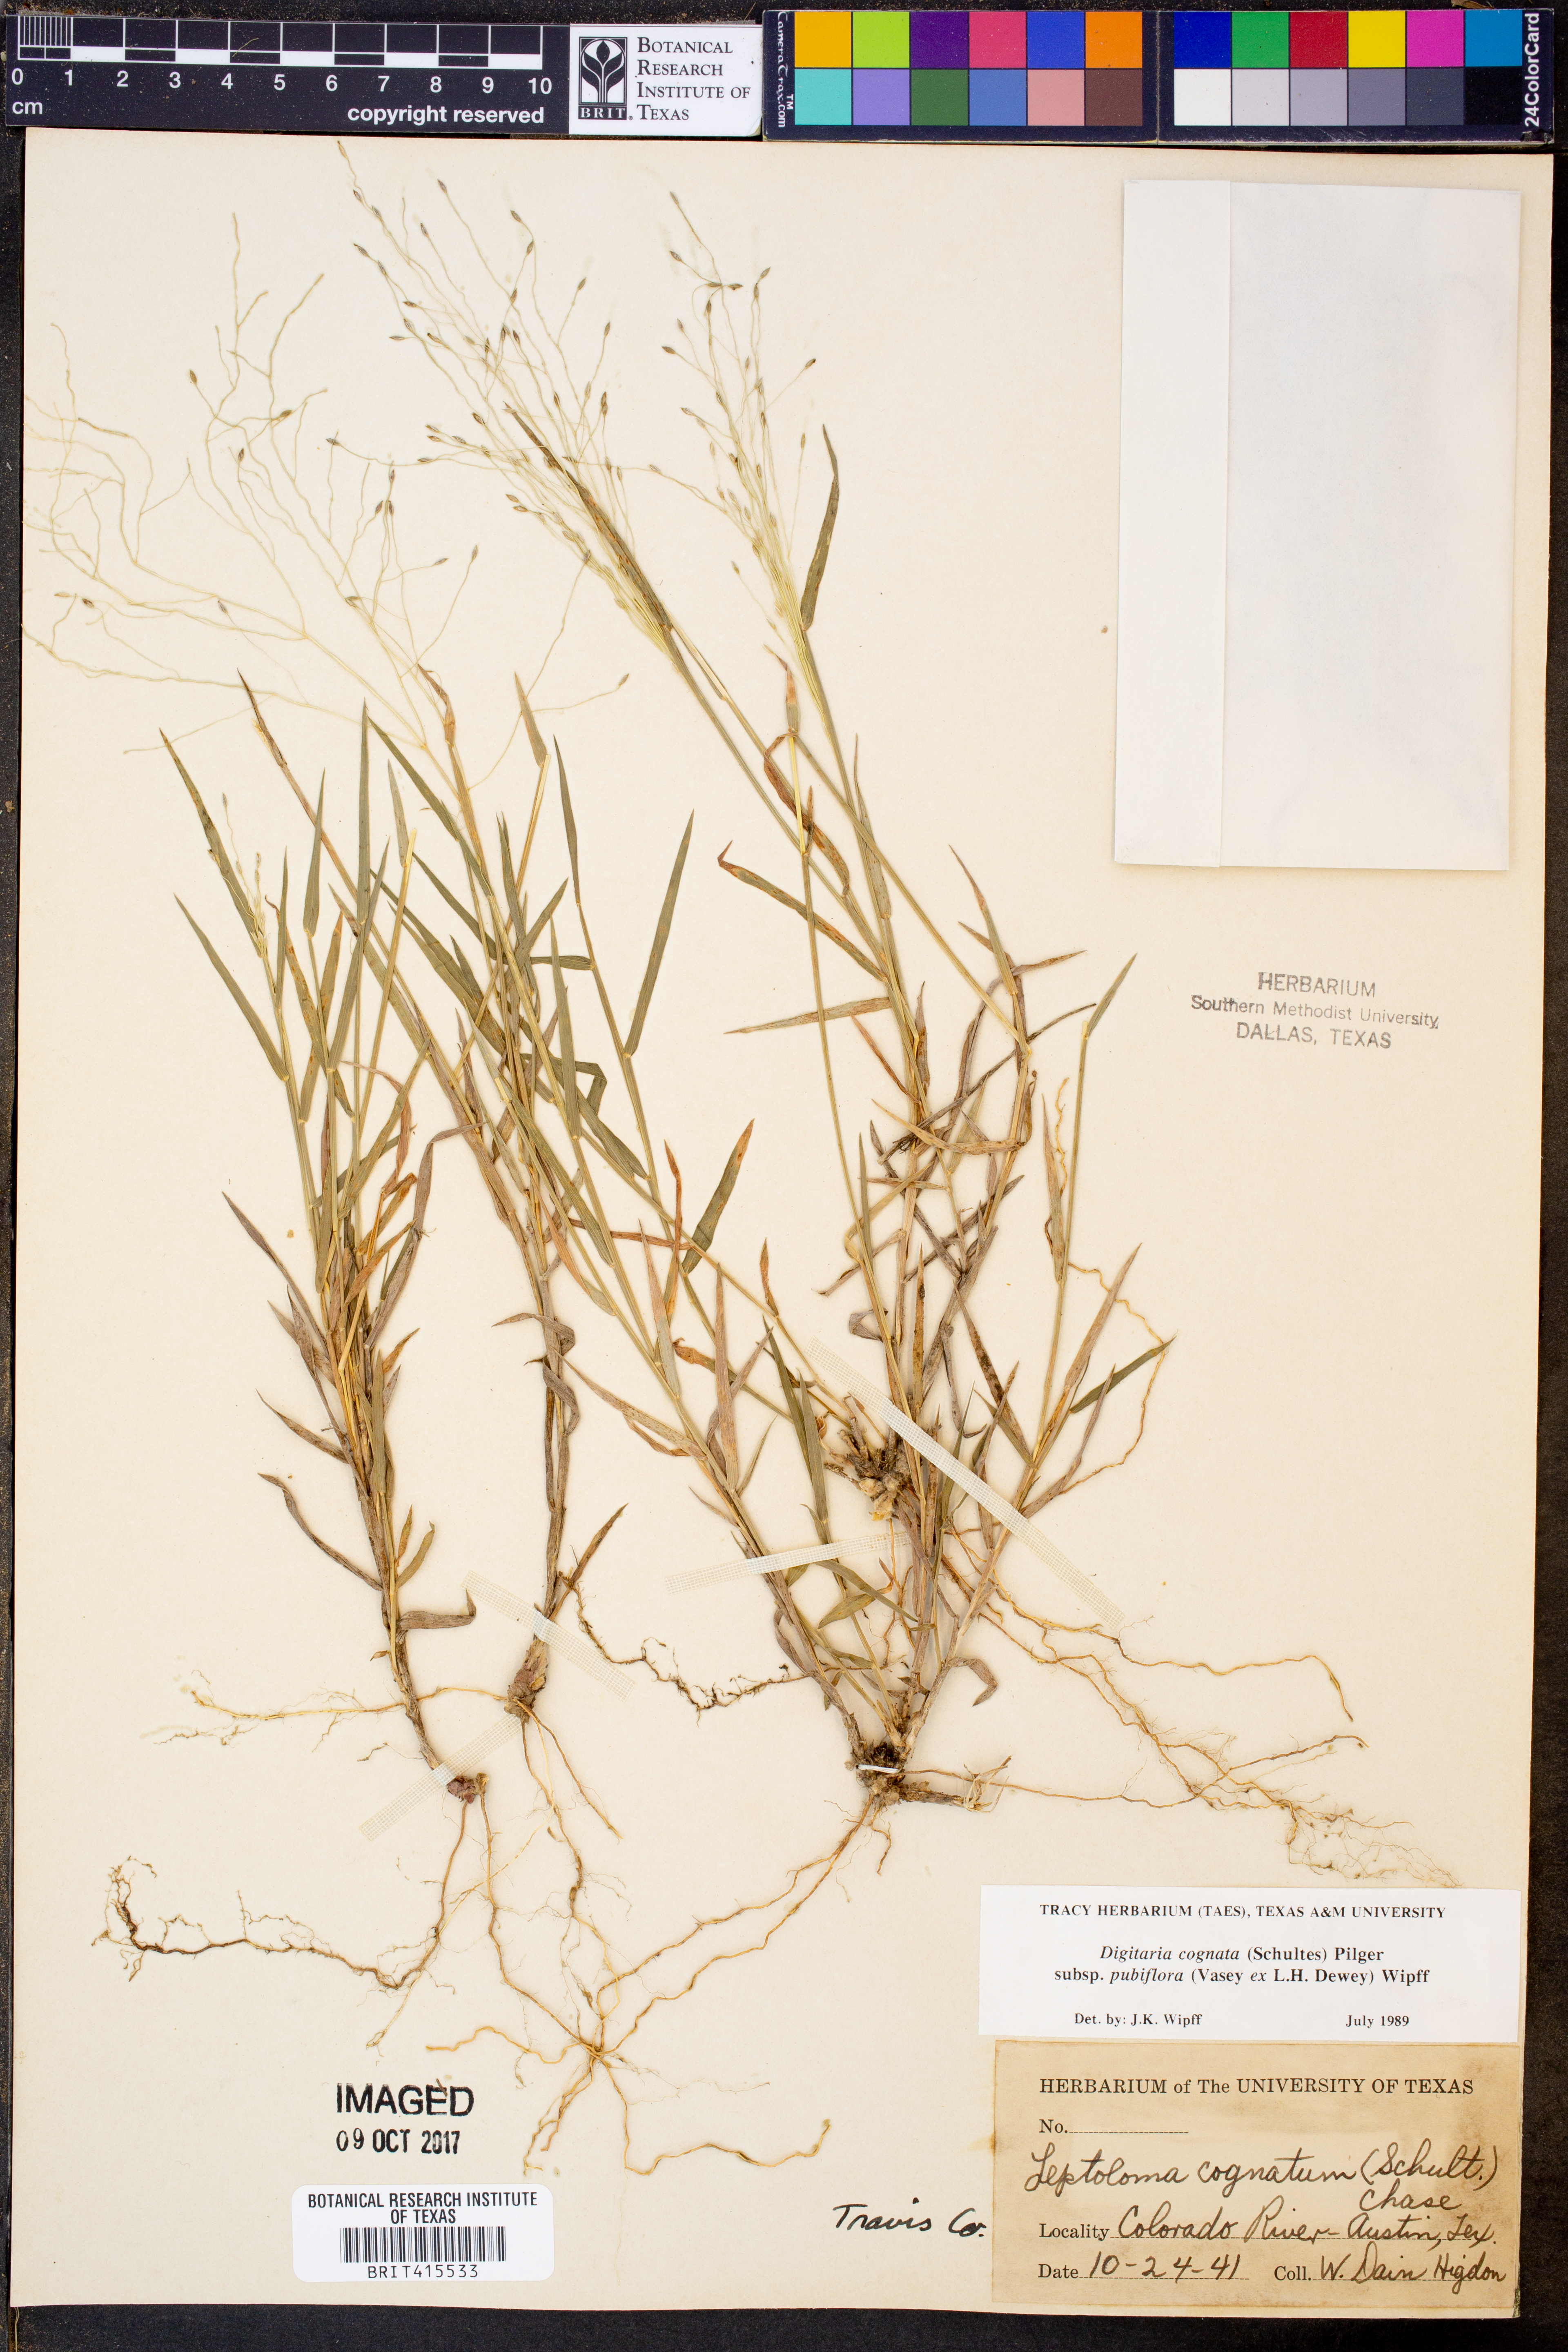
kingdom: Plantae
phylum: Tracheophyta
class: Liliopsida
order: Poales
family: Poaceae
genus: Digitaria
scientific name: Digitaria cognata
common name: Fall witchgrass
